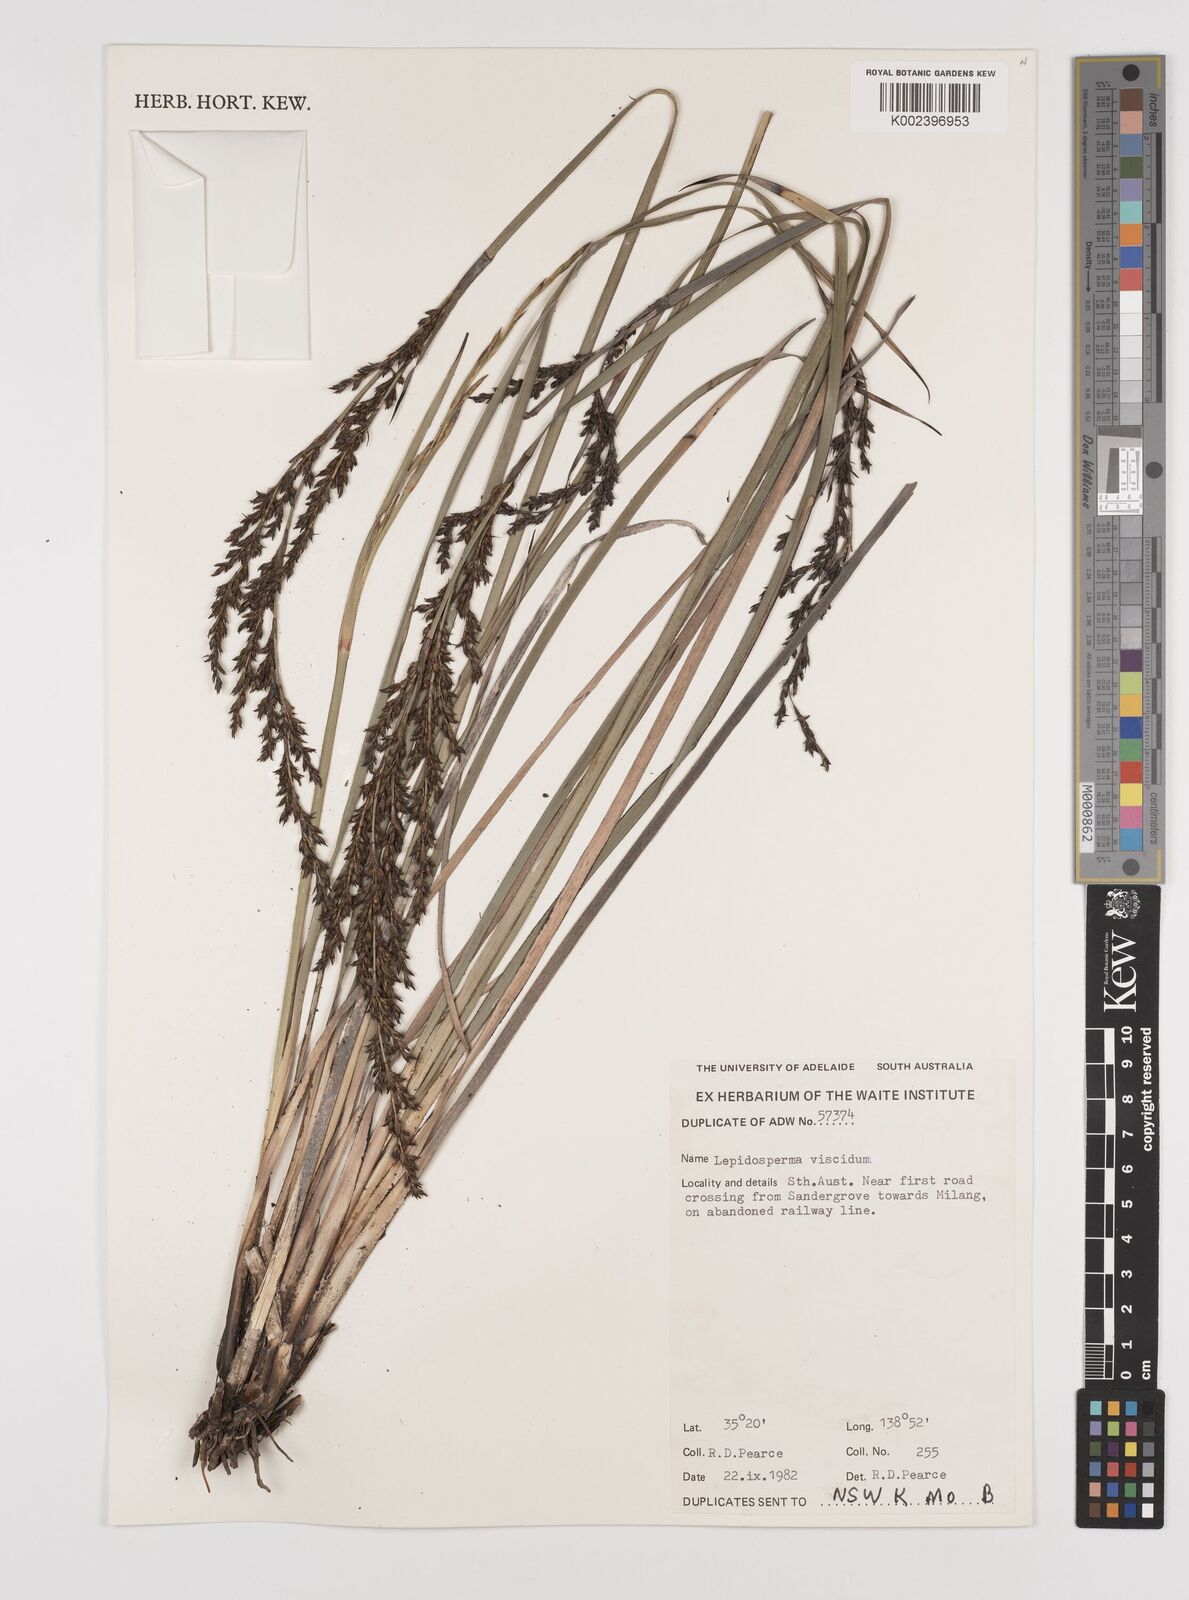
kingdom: Plantae
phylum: Tracheophyta
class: Liliopsida
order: Poales
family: Cyperaceae
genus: Lepidosperma
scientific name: Lepidosperma viscidum
